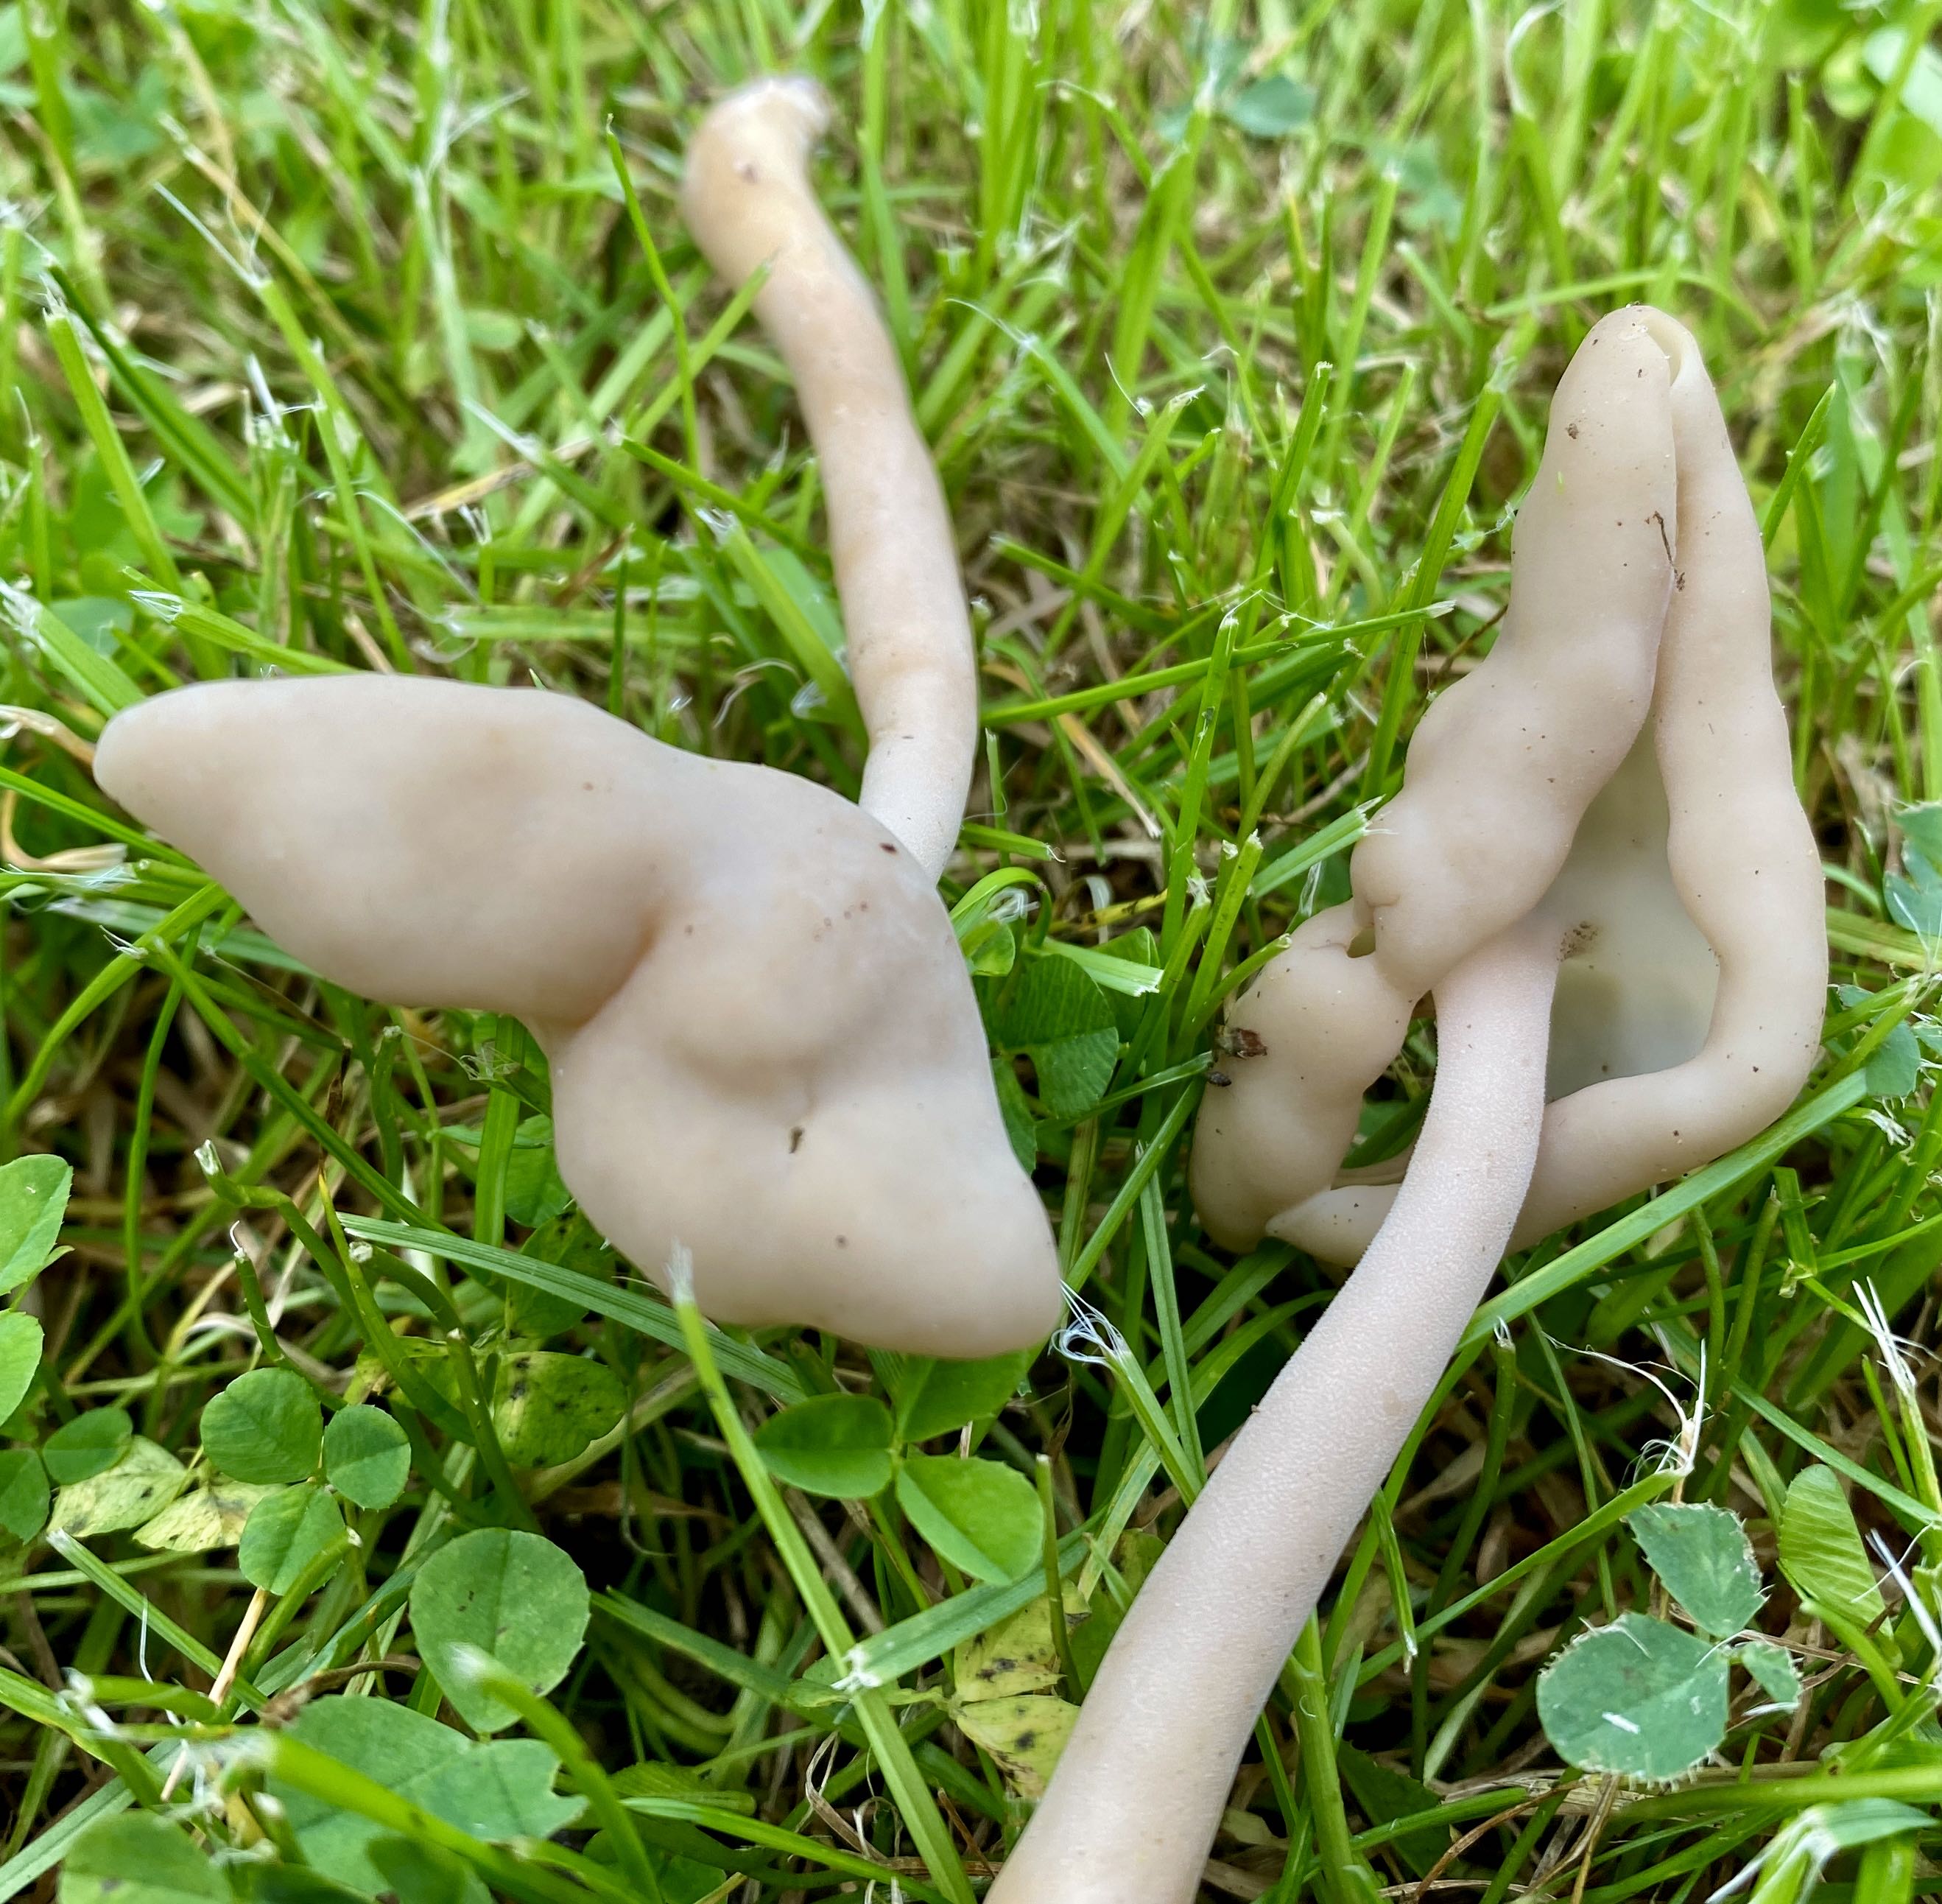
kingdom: Fungi
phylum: Ascomycota
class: Pezizomycetes
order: Pezizales
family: Helvellaceae
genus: Helvella
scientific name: Helvella elastica
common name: elastik-foldhat
